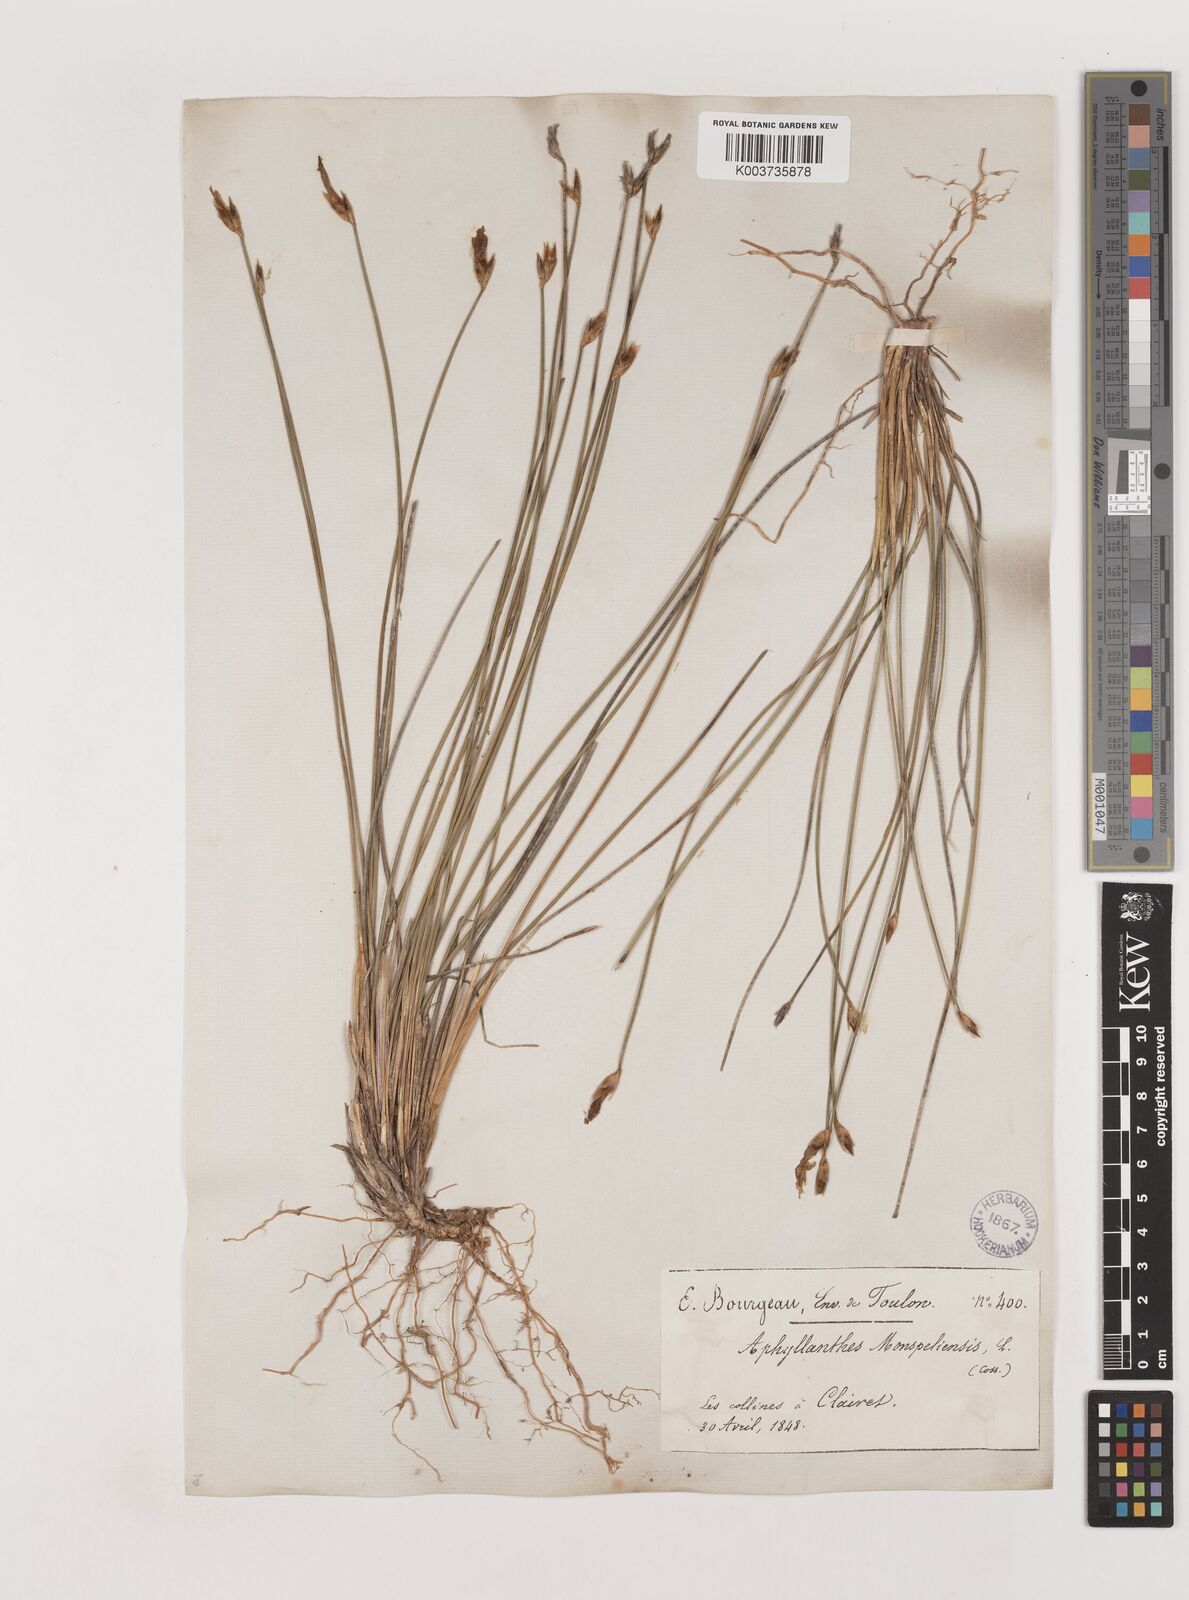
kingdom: Plantae
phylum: Tracheophyta
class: Liliopsida
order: Asparagales
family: Asparagaceae
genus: Aphyllanthes
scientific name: Aphyllanthes monspeliensis
